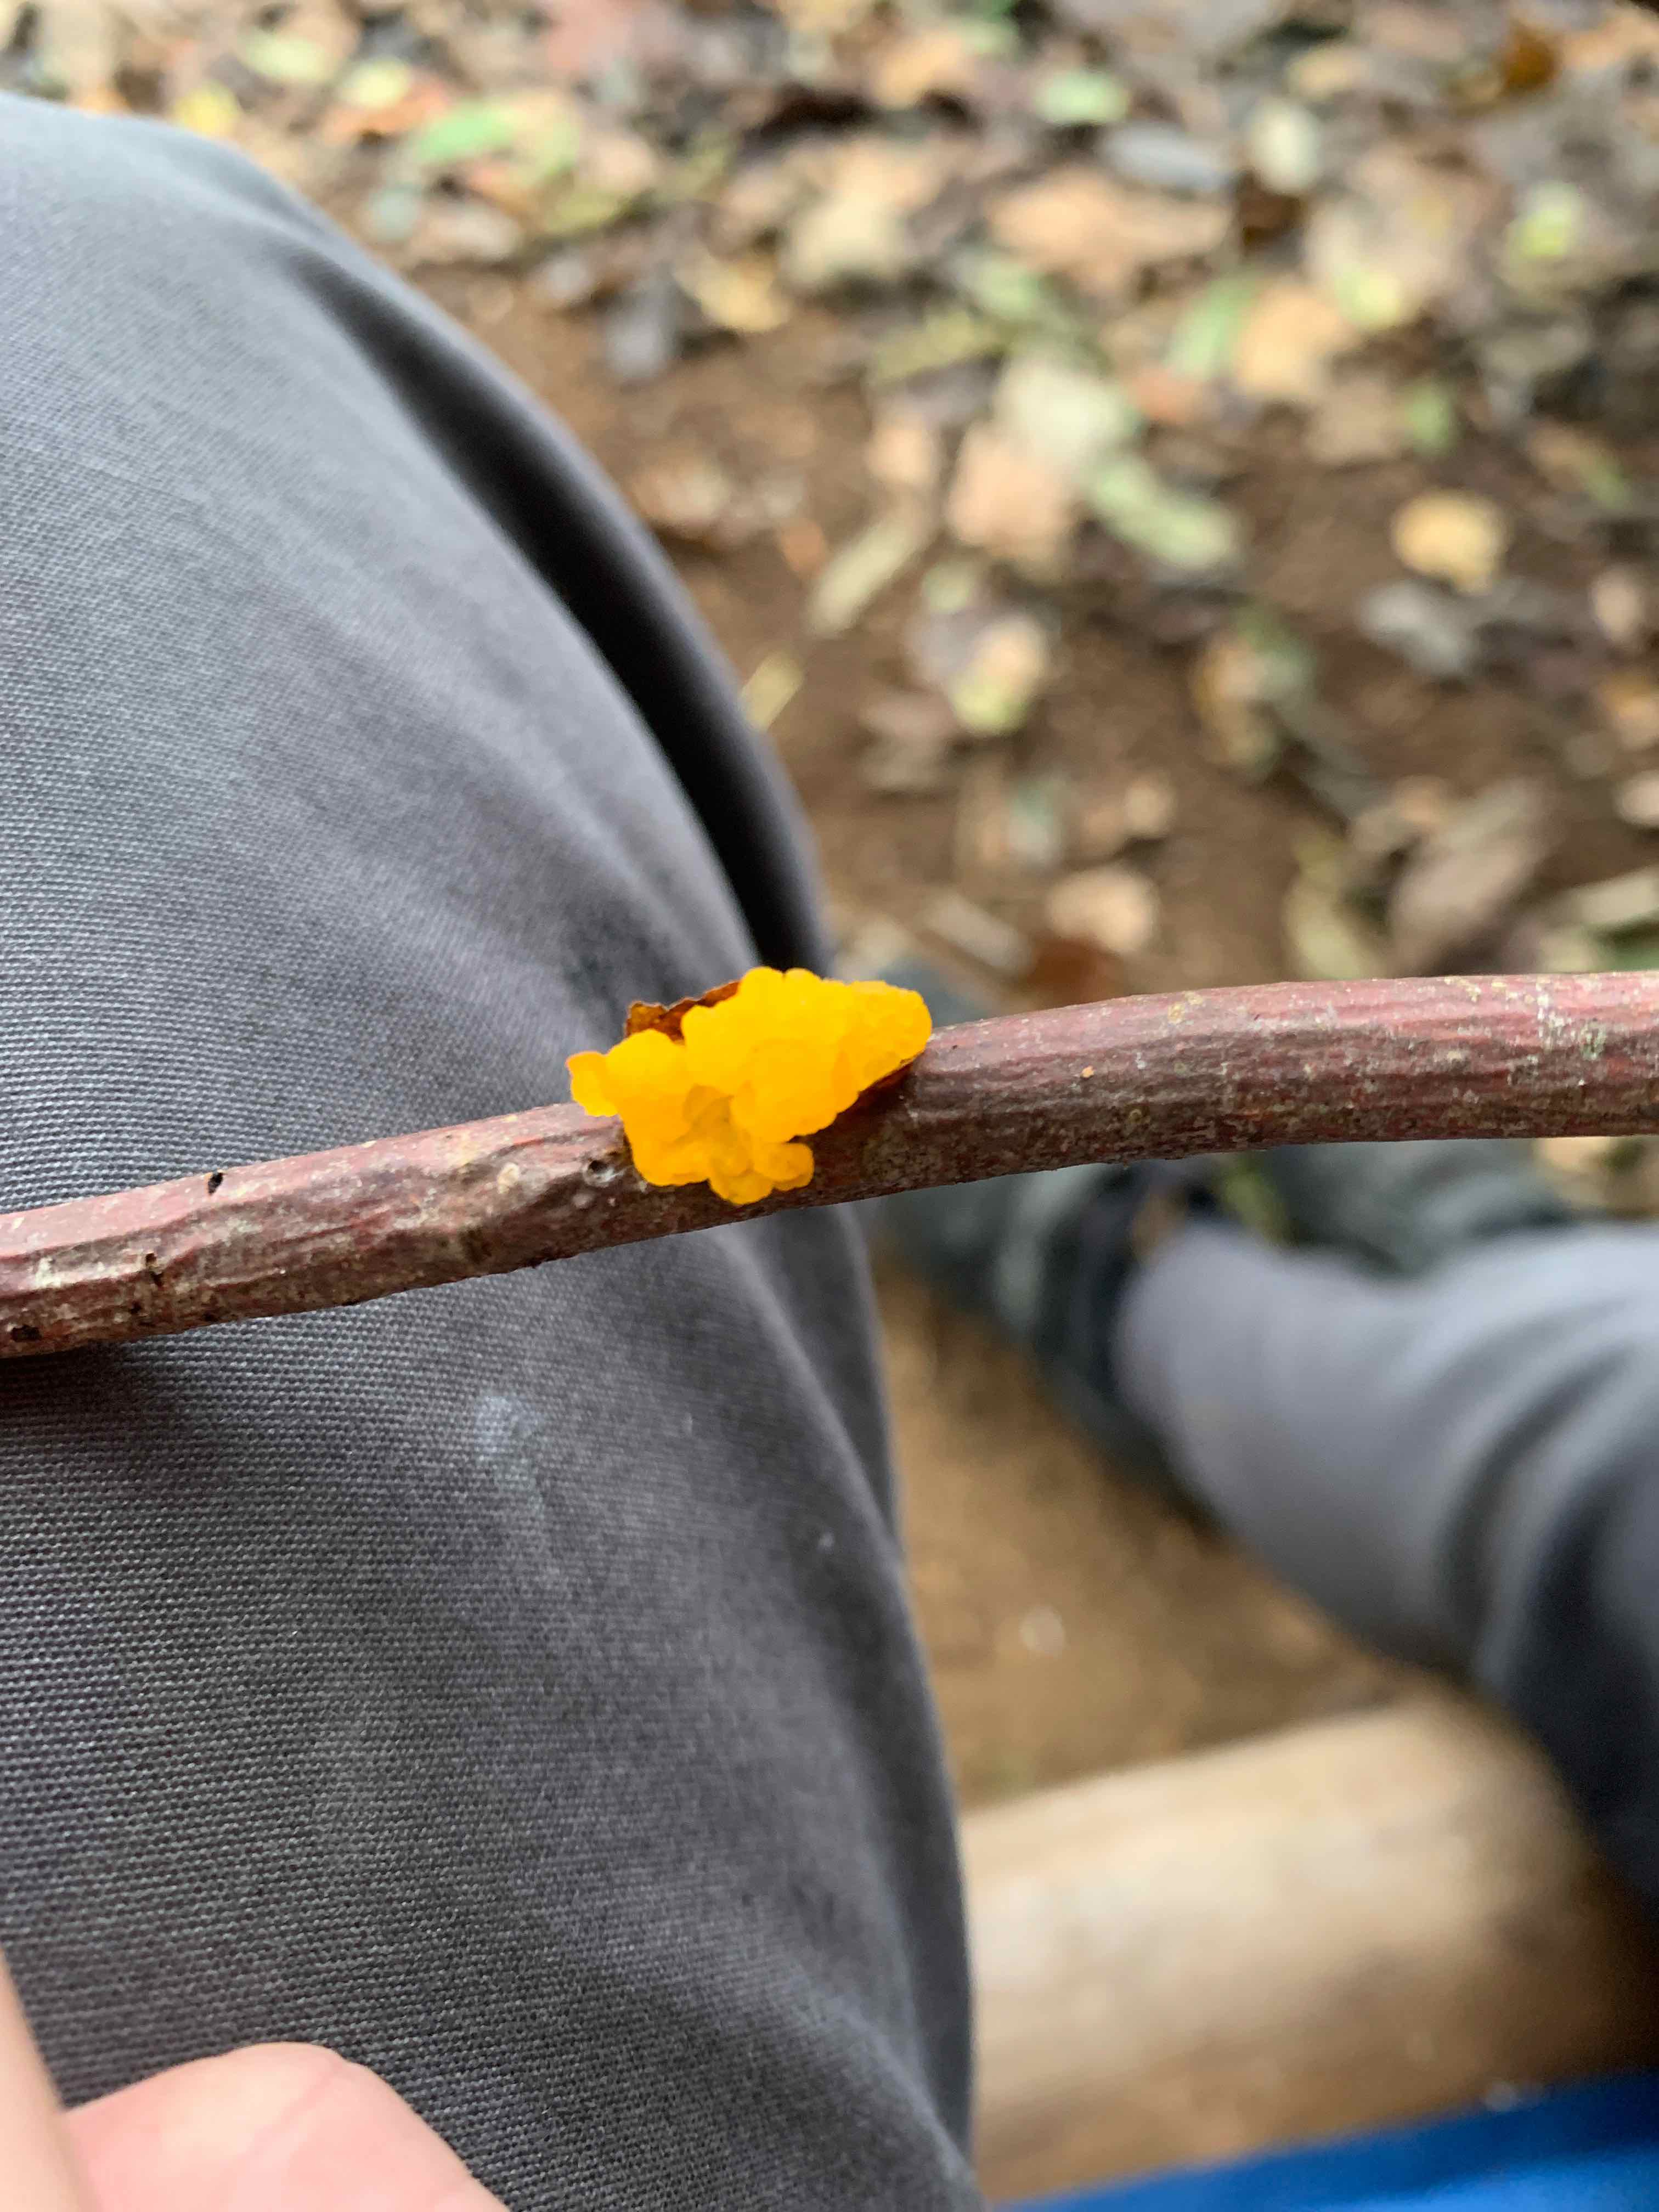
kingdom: Fungi
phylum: Basidiomycota
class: Tremellomycetes
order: Tremellales
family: Tremellaceae
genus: Tremella
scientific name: Tremella mesenterica
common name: gul bævresvamp
